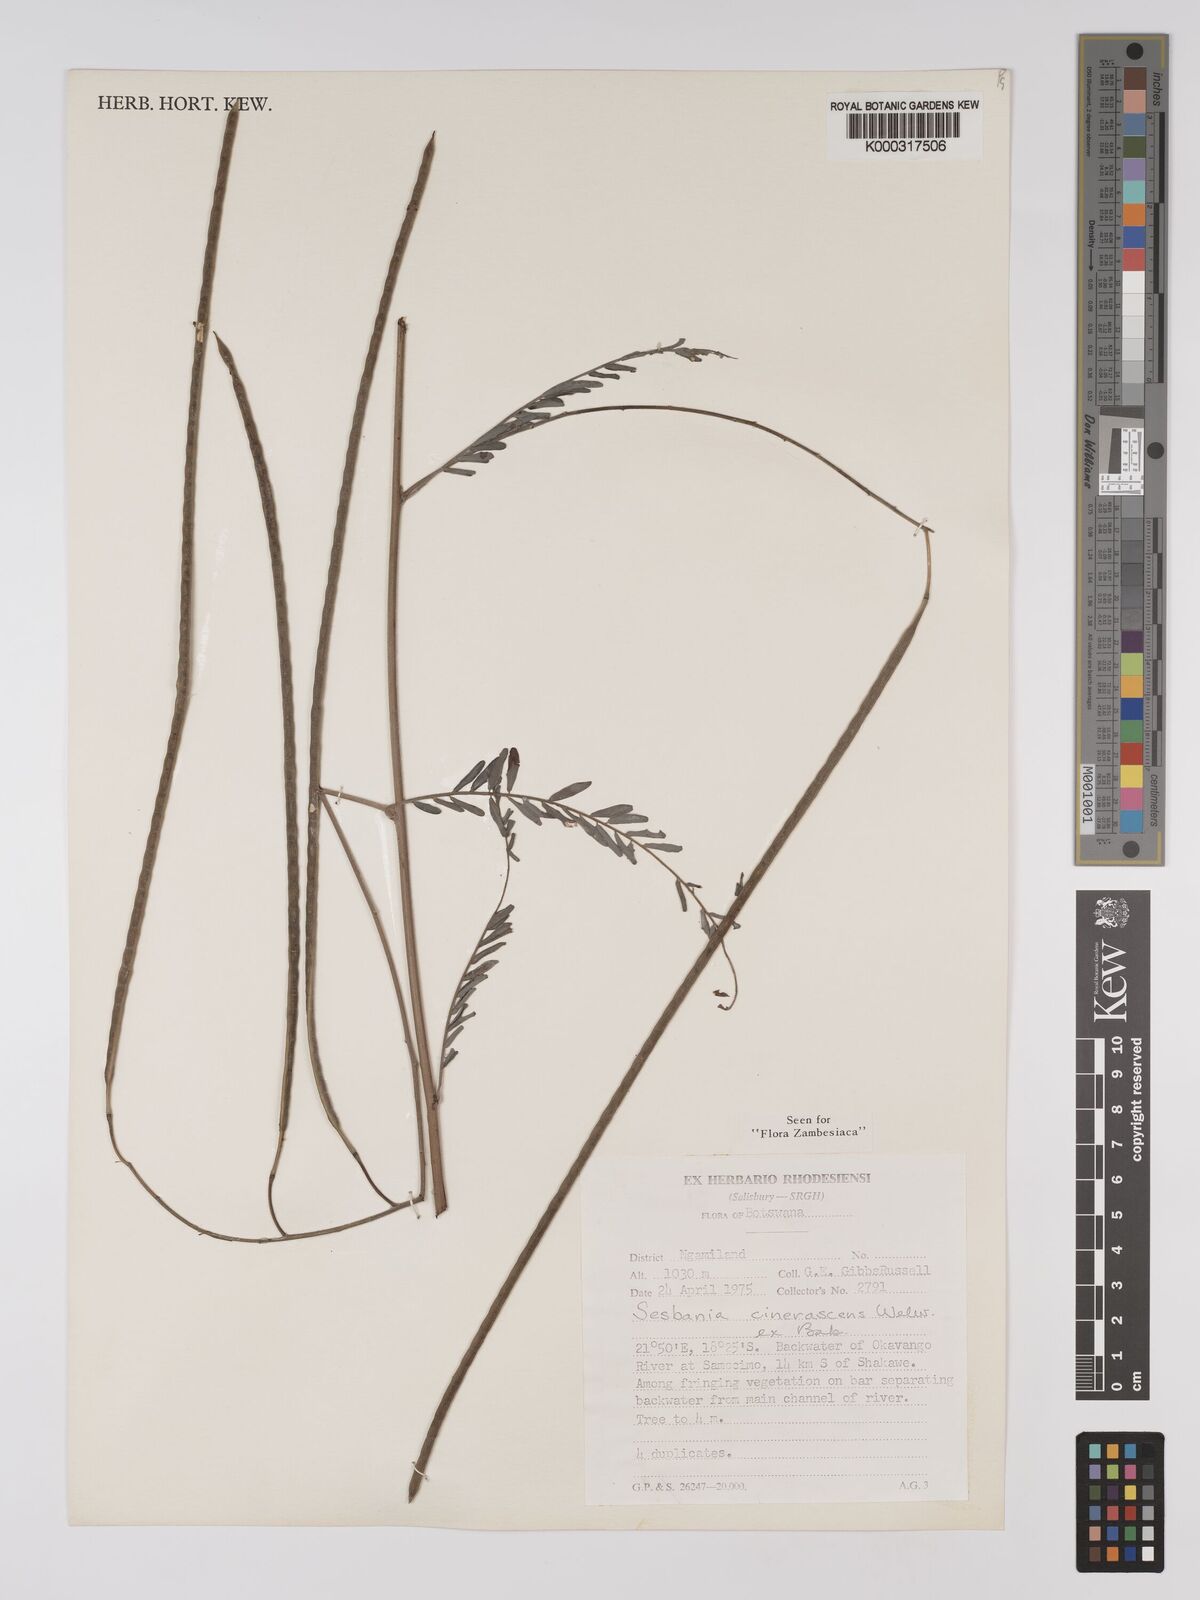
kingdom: Plantae
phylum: Tracheophyta
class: Magnoliopsida
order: Fabales
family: Fabaceae
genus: Sesbania
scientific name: Sesbania cinerascens
